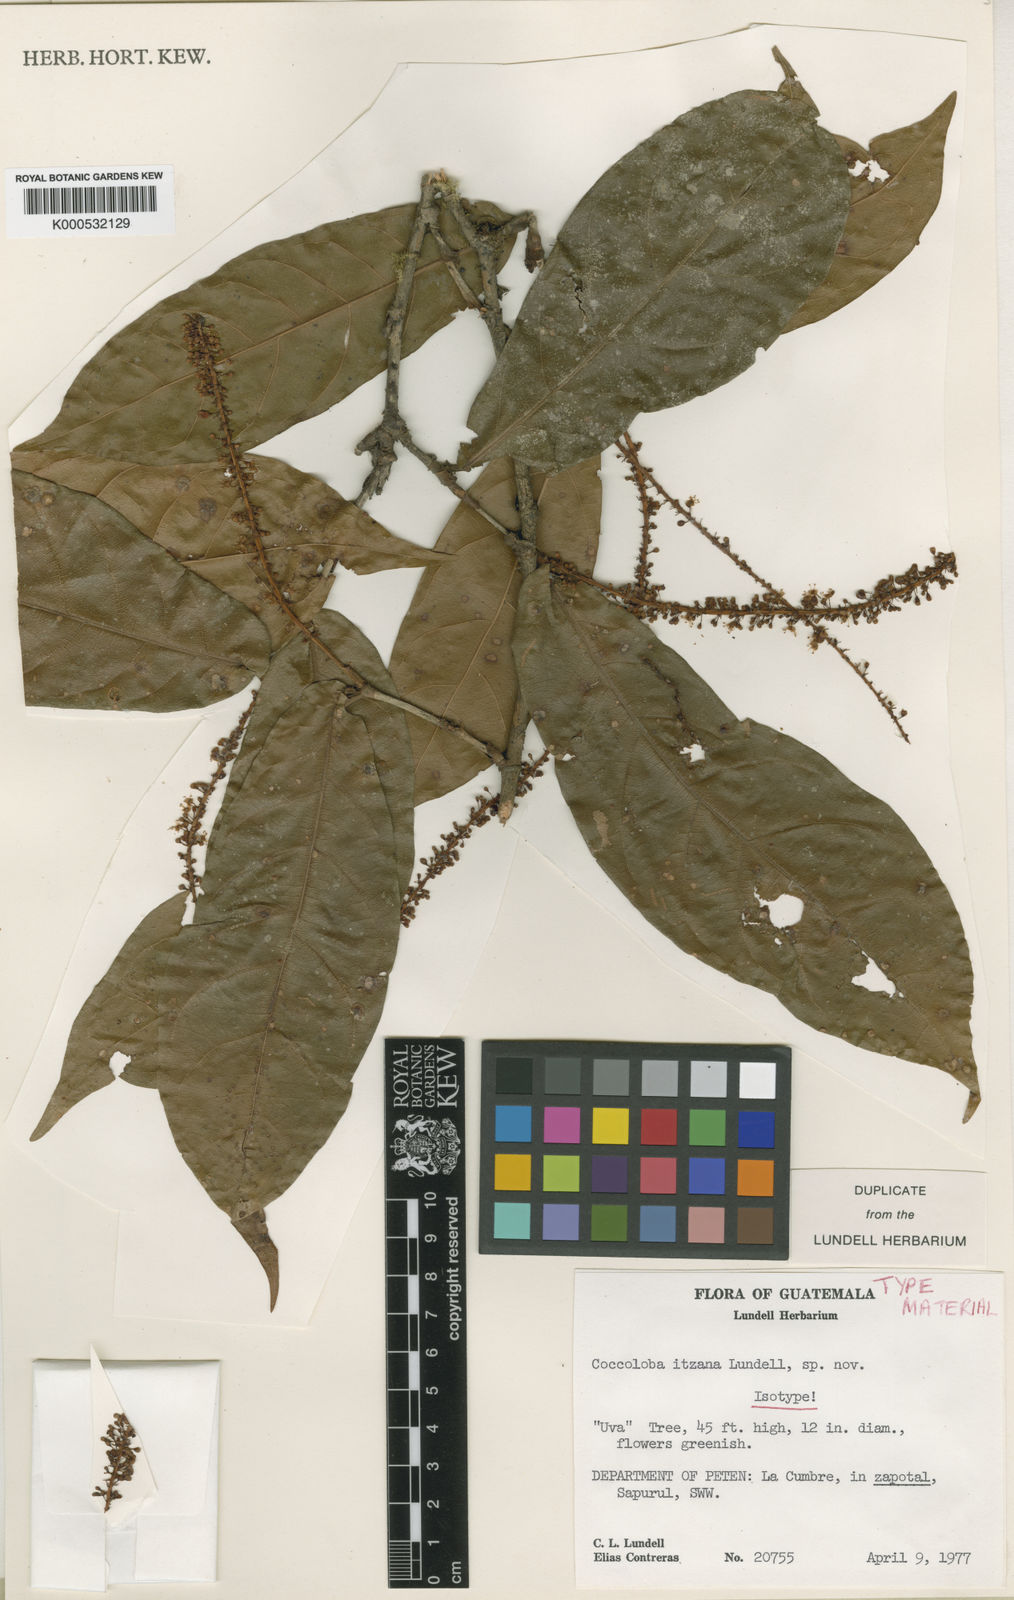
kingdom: Plantae
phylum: Tracheophyta
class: Magnoliopsida
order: Caryophyllales
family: Polygonaceae
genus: Coccoloba
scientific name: Coccoloba lindaviana
